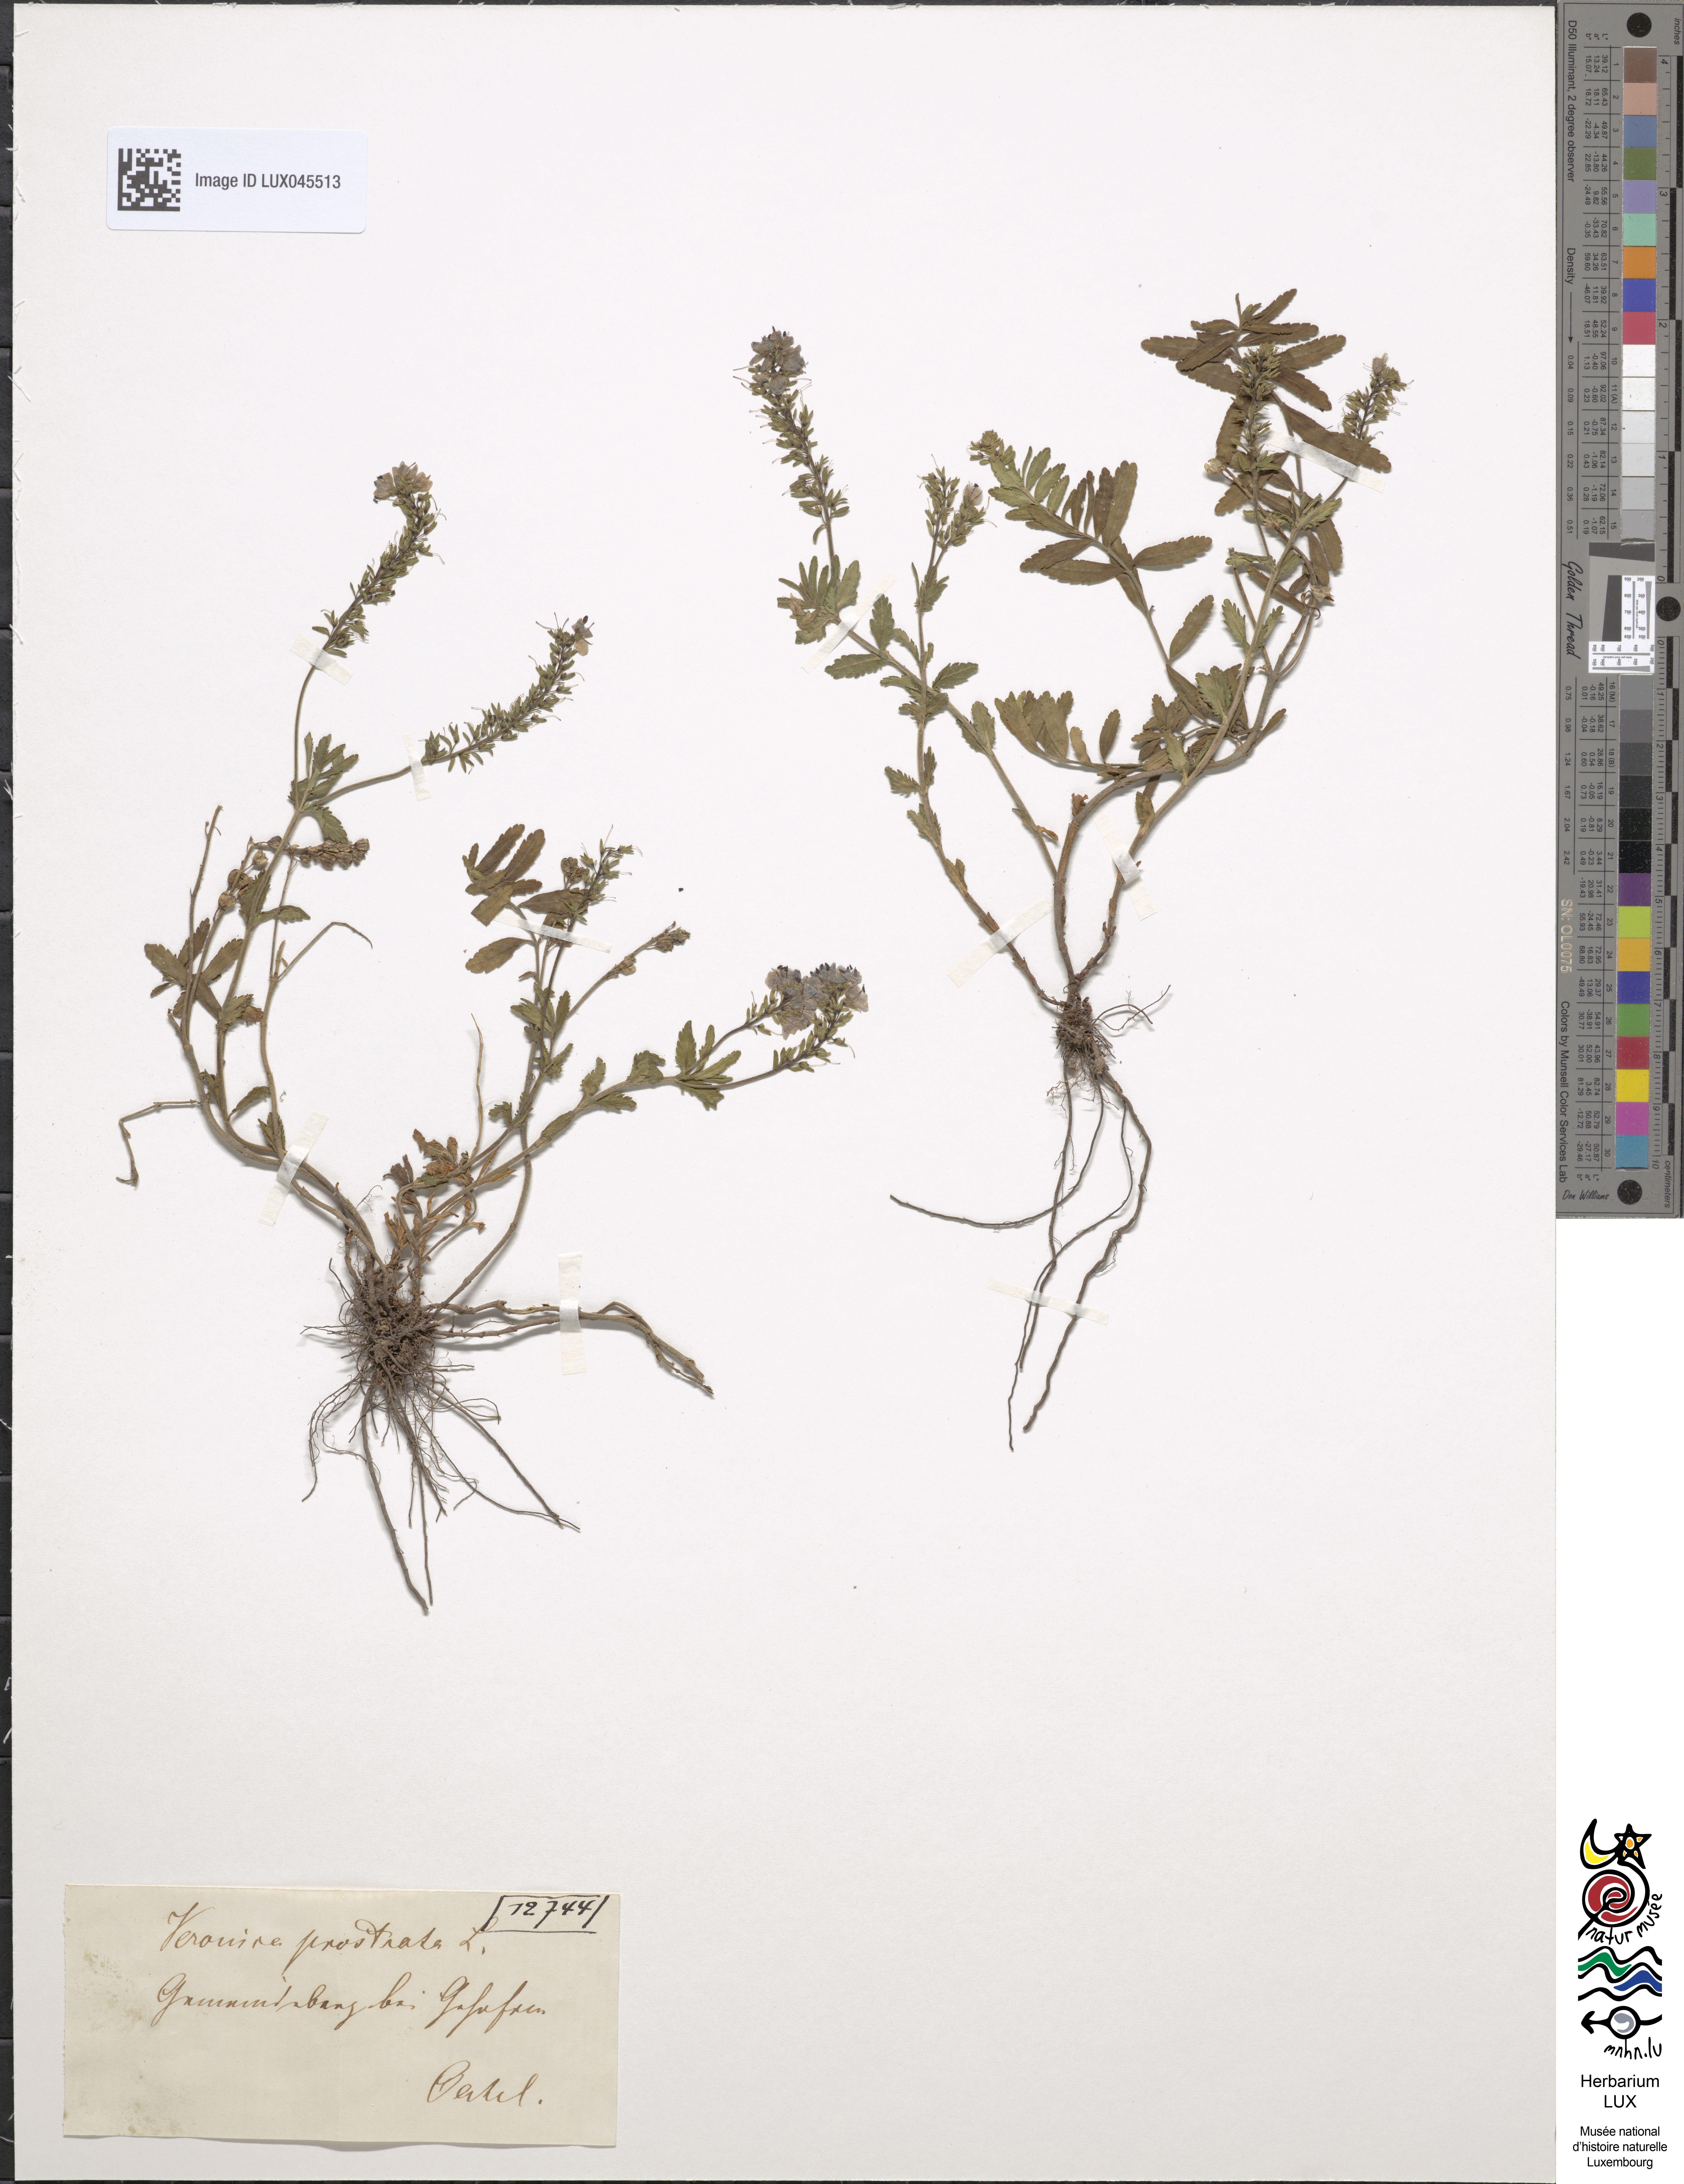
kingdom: Plantae
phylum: Tracheophyta
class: Magnoliopsida
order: Lamiales
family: Plantaginaceae
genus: Veronica
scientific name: Veronica prostrata
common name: Prostrate speedwell
